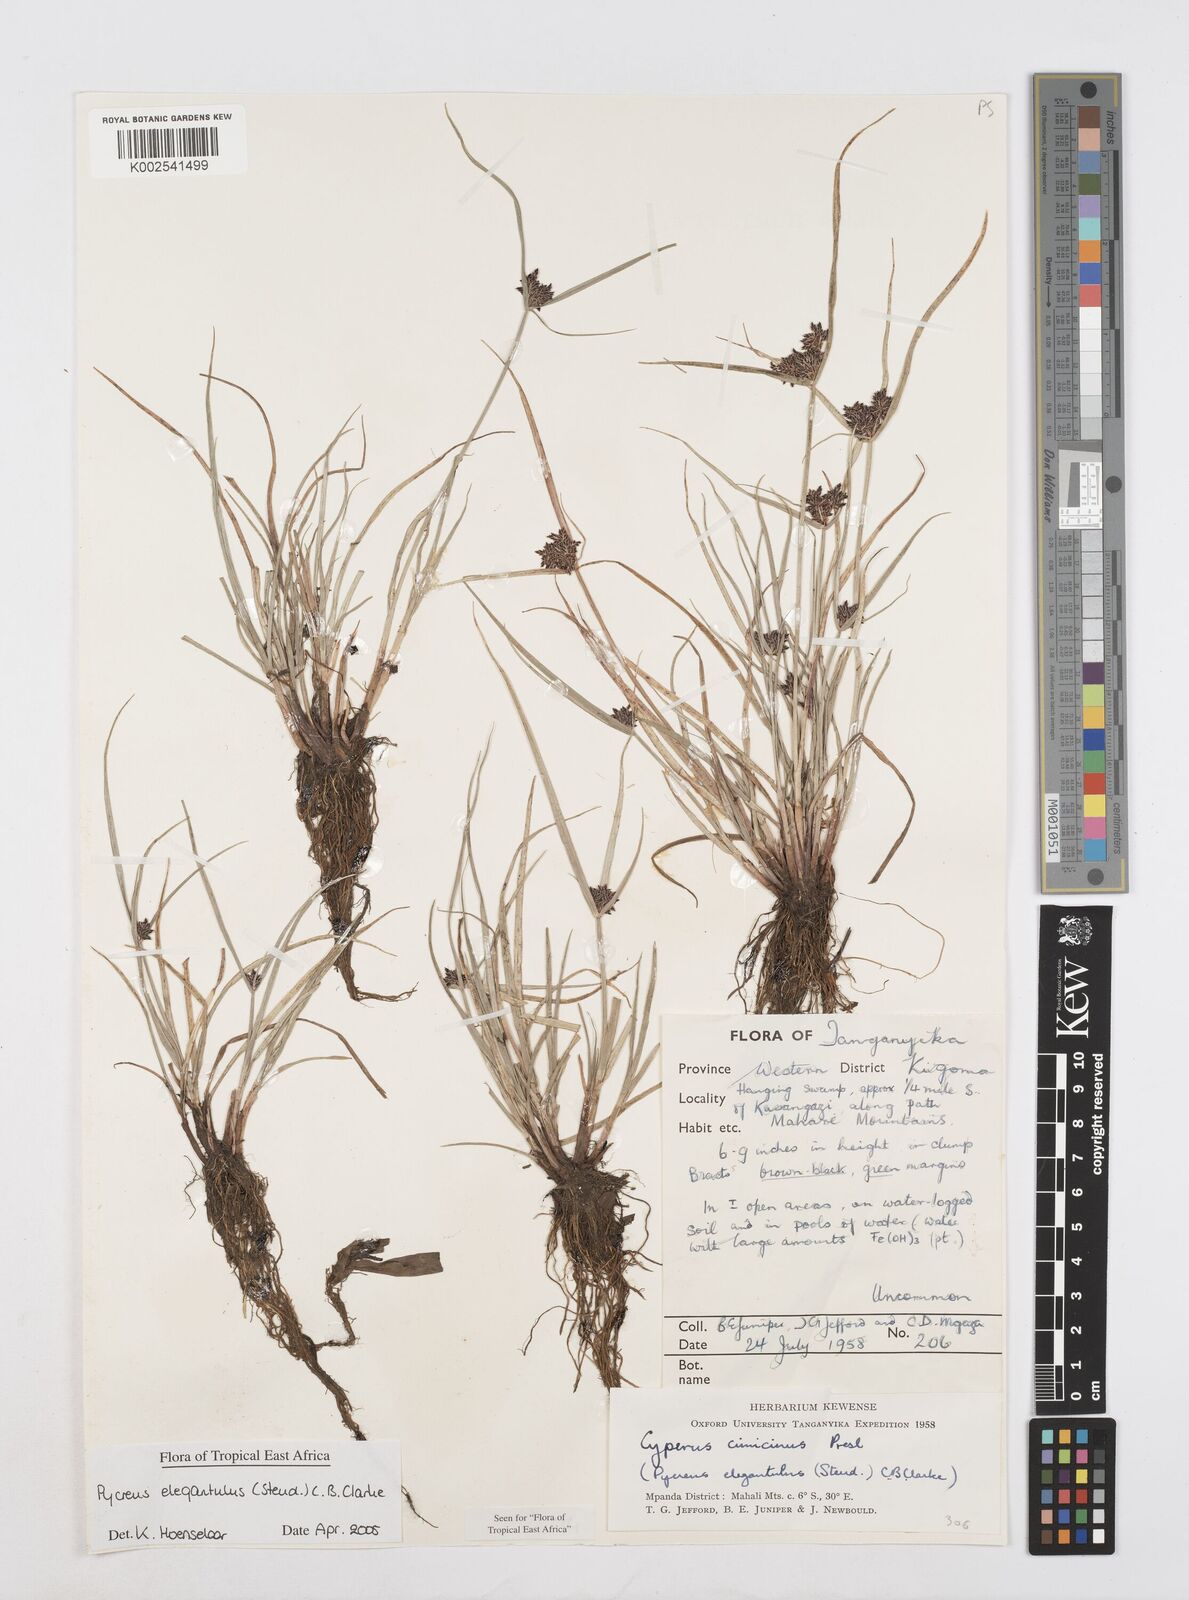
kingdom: Plantae
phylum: Tracheophyta
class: Liliopsida
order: Poales
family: Cyperaceae
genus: Cyperus
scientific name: Cyperus elegantulus
